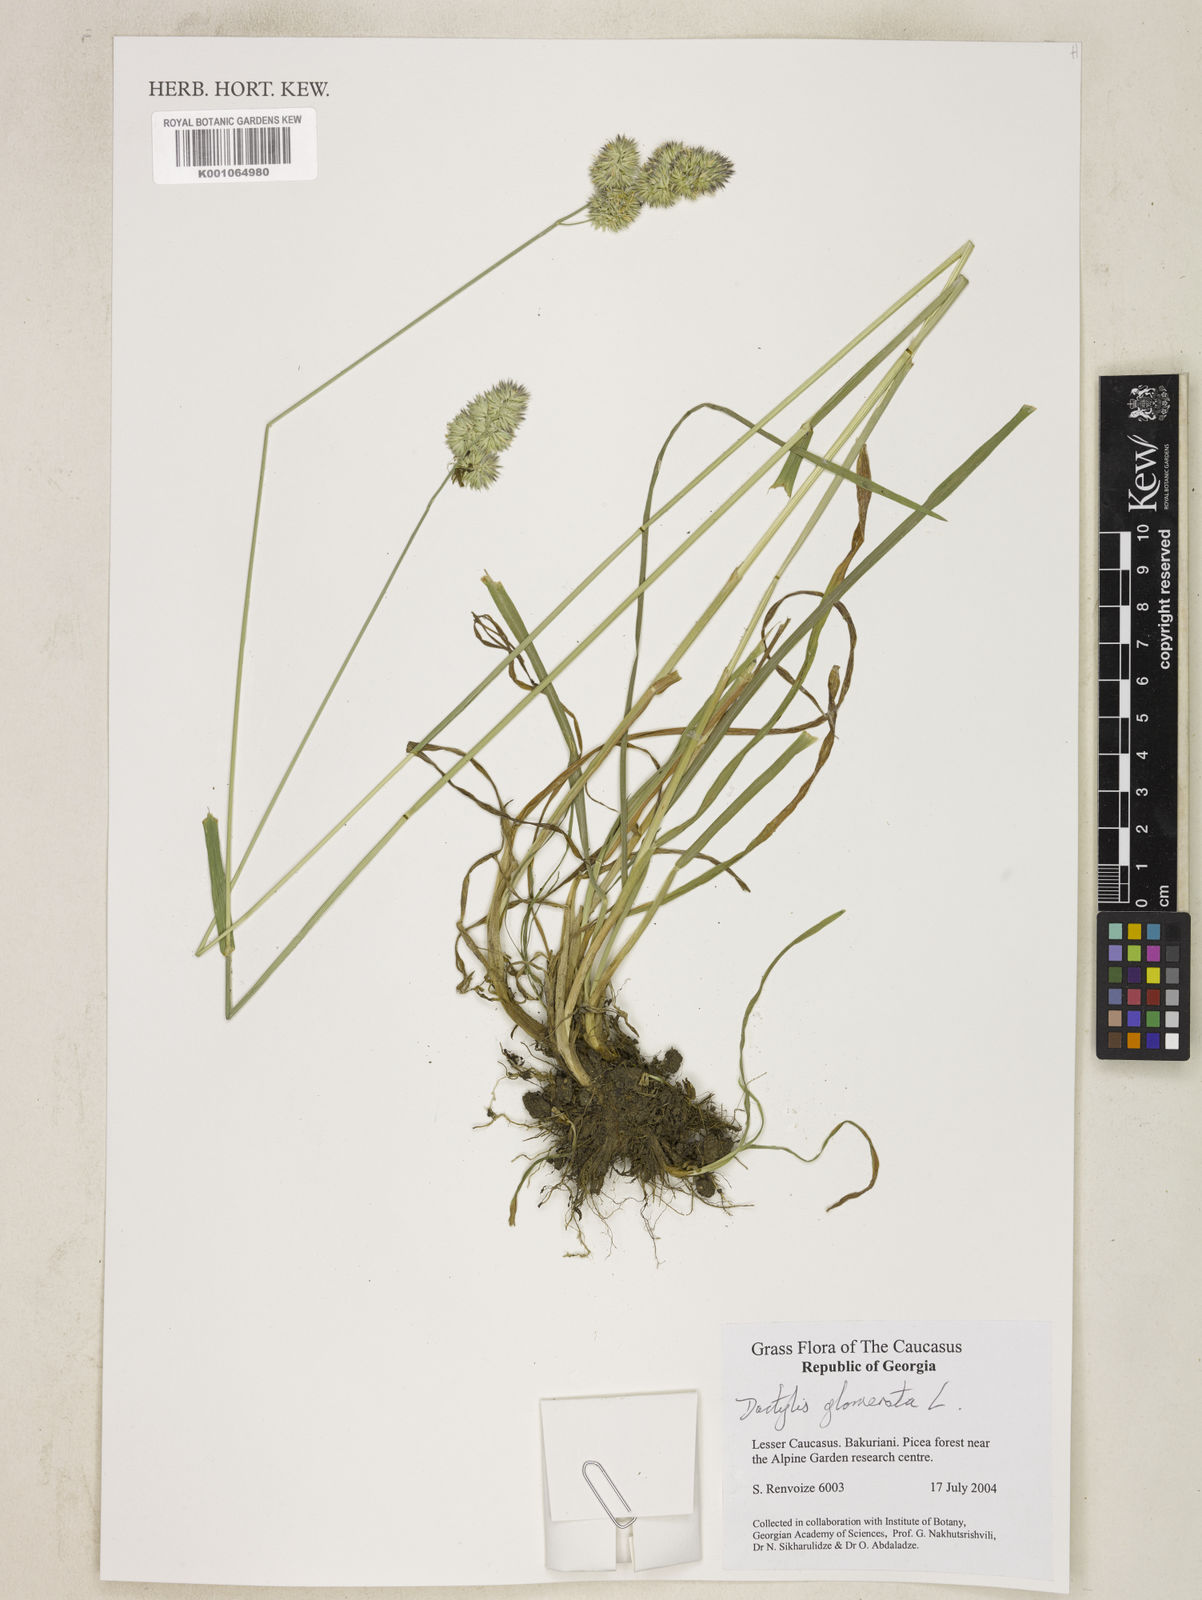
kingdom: Plantae
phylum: Tracheophyta
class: Liliopsida
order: Poales
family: Poaceae
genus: Dactylis
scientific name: Dactylis glomerata
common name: Orchardgrass
